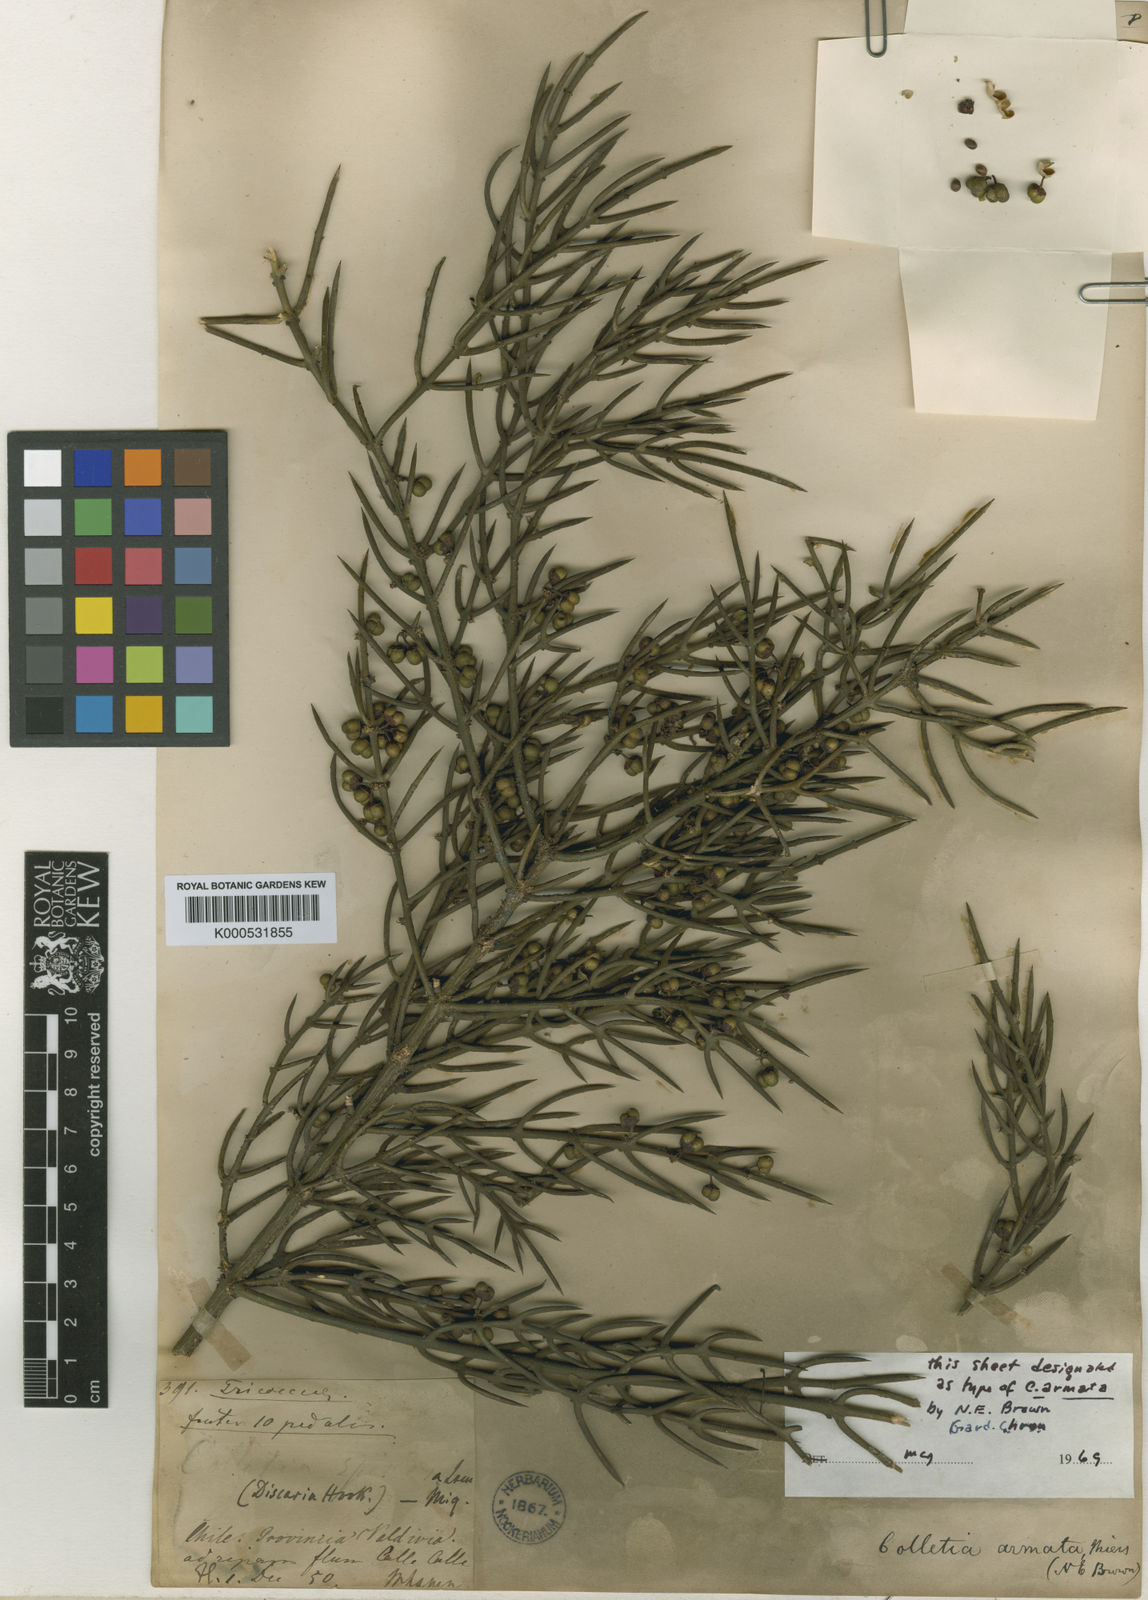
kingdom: Plantae
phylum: Tracheophyta
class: Magnoliopsida
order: Rosales
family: Rhamnaceae
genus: Colletia
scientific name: Colletia hystrix
